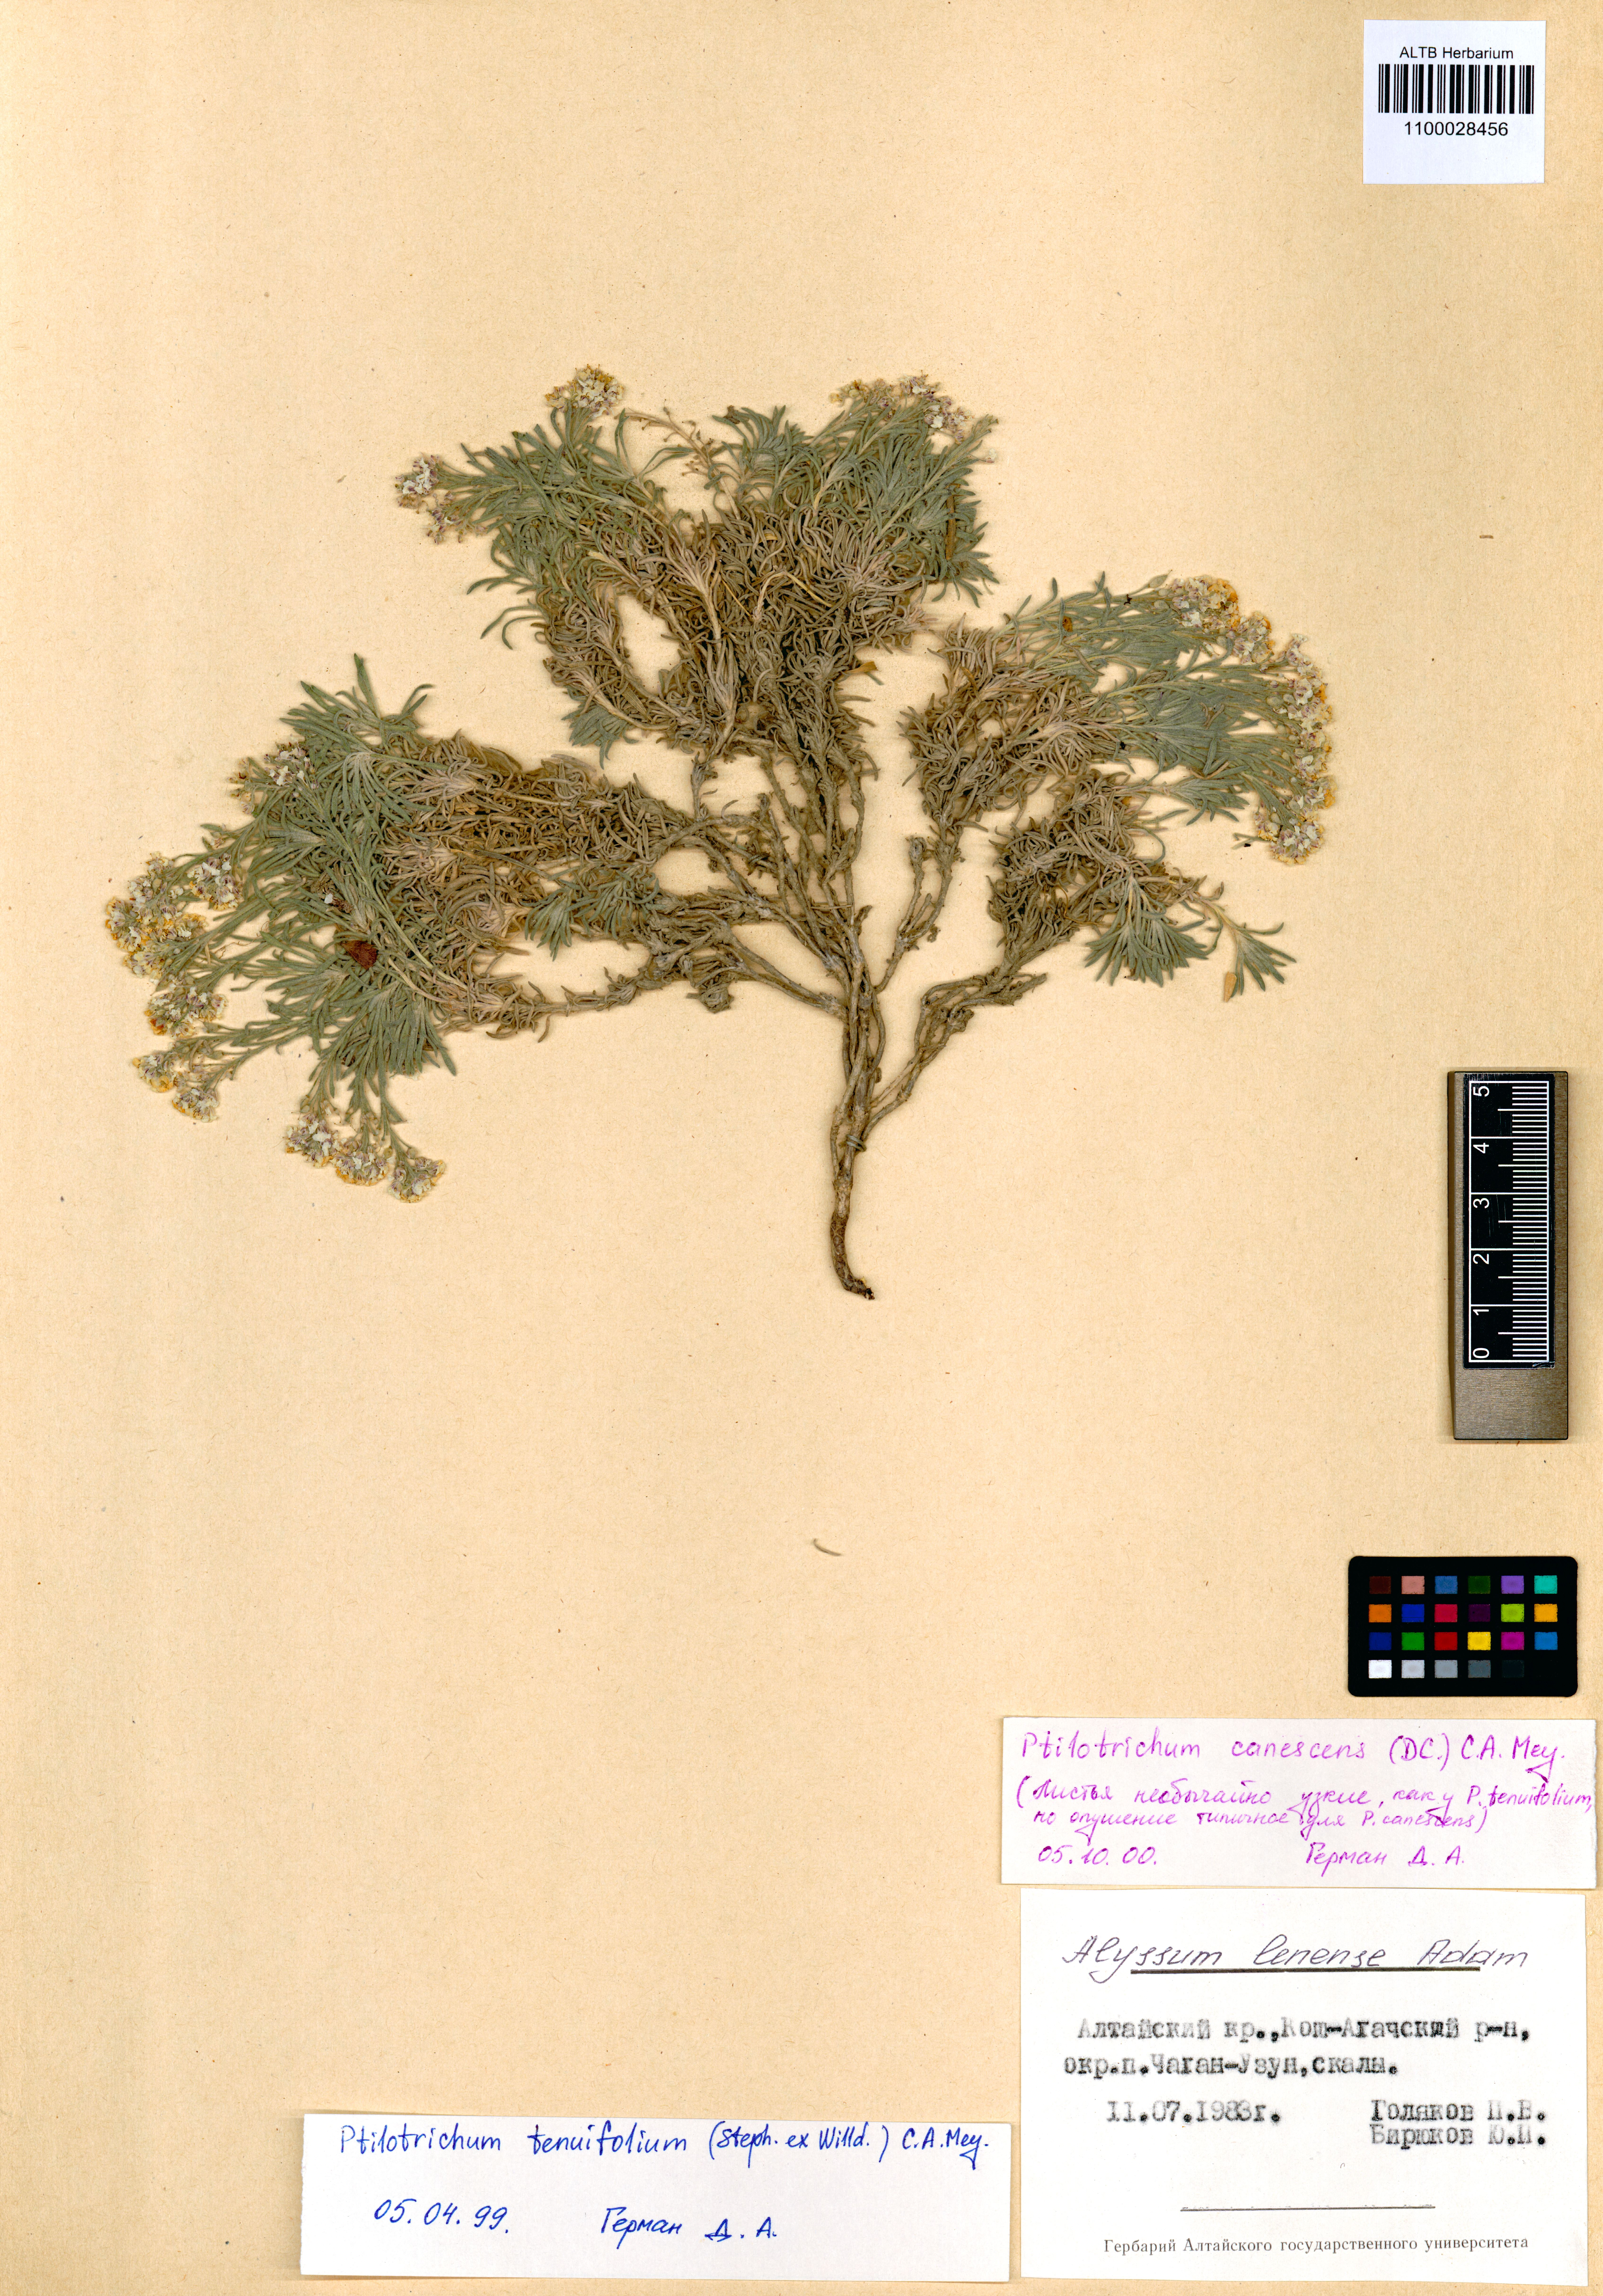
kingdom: Plantae
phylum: Tracheophyta
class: Magnoliopsida
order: Brassicales
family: Brassicaceae
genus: Stevenia
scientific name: Stevenia canescens
